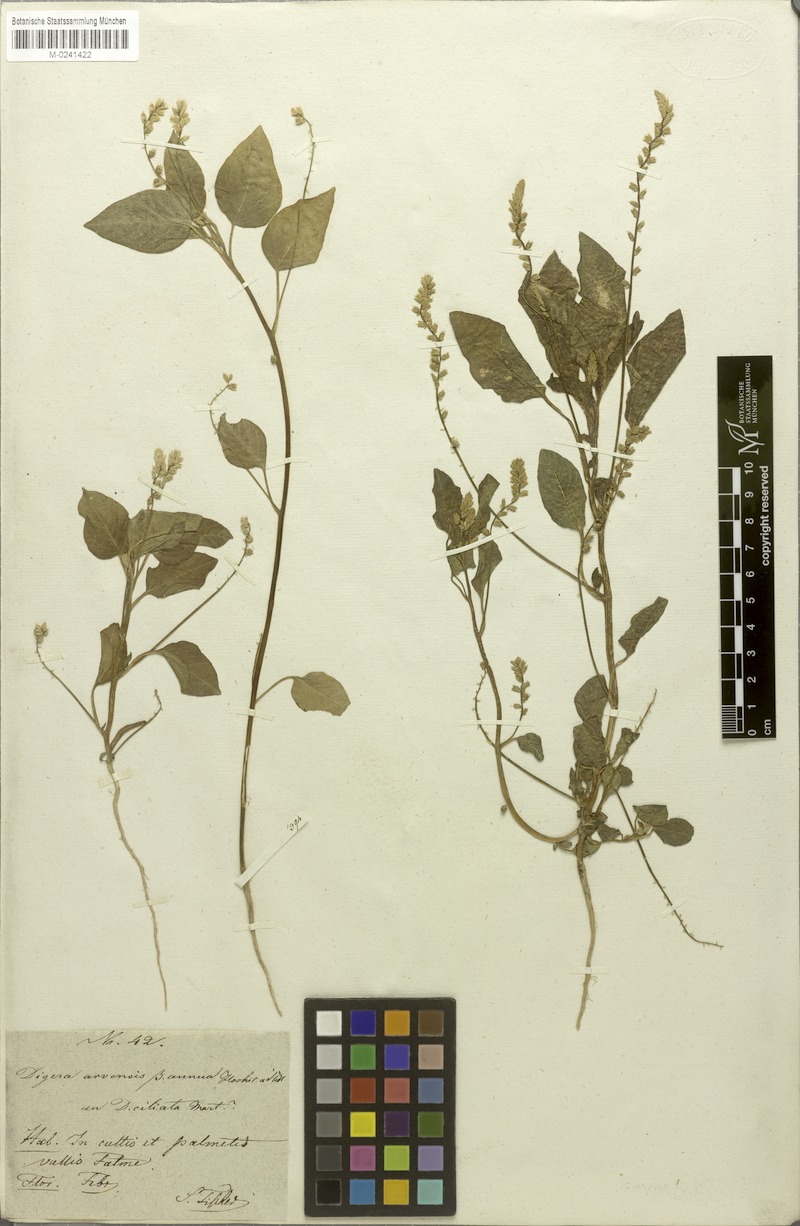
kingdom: Plantae
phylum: Tracheophyta
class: Magnoliopsida
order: Caryophyllales
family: Amaranthaceae
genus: Digera
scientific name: Digera muricata
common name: False amaranth
